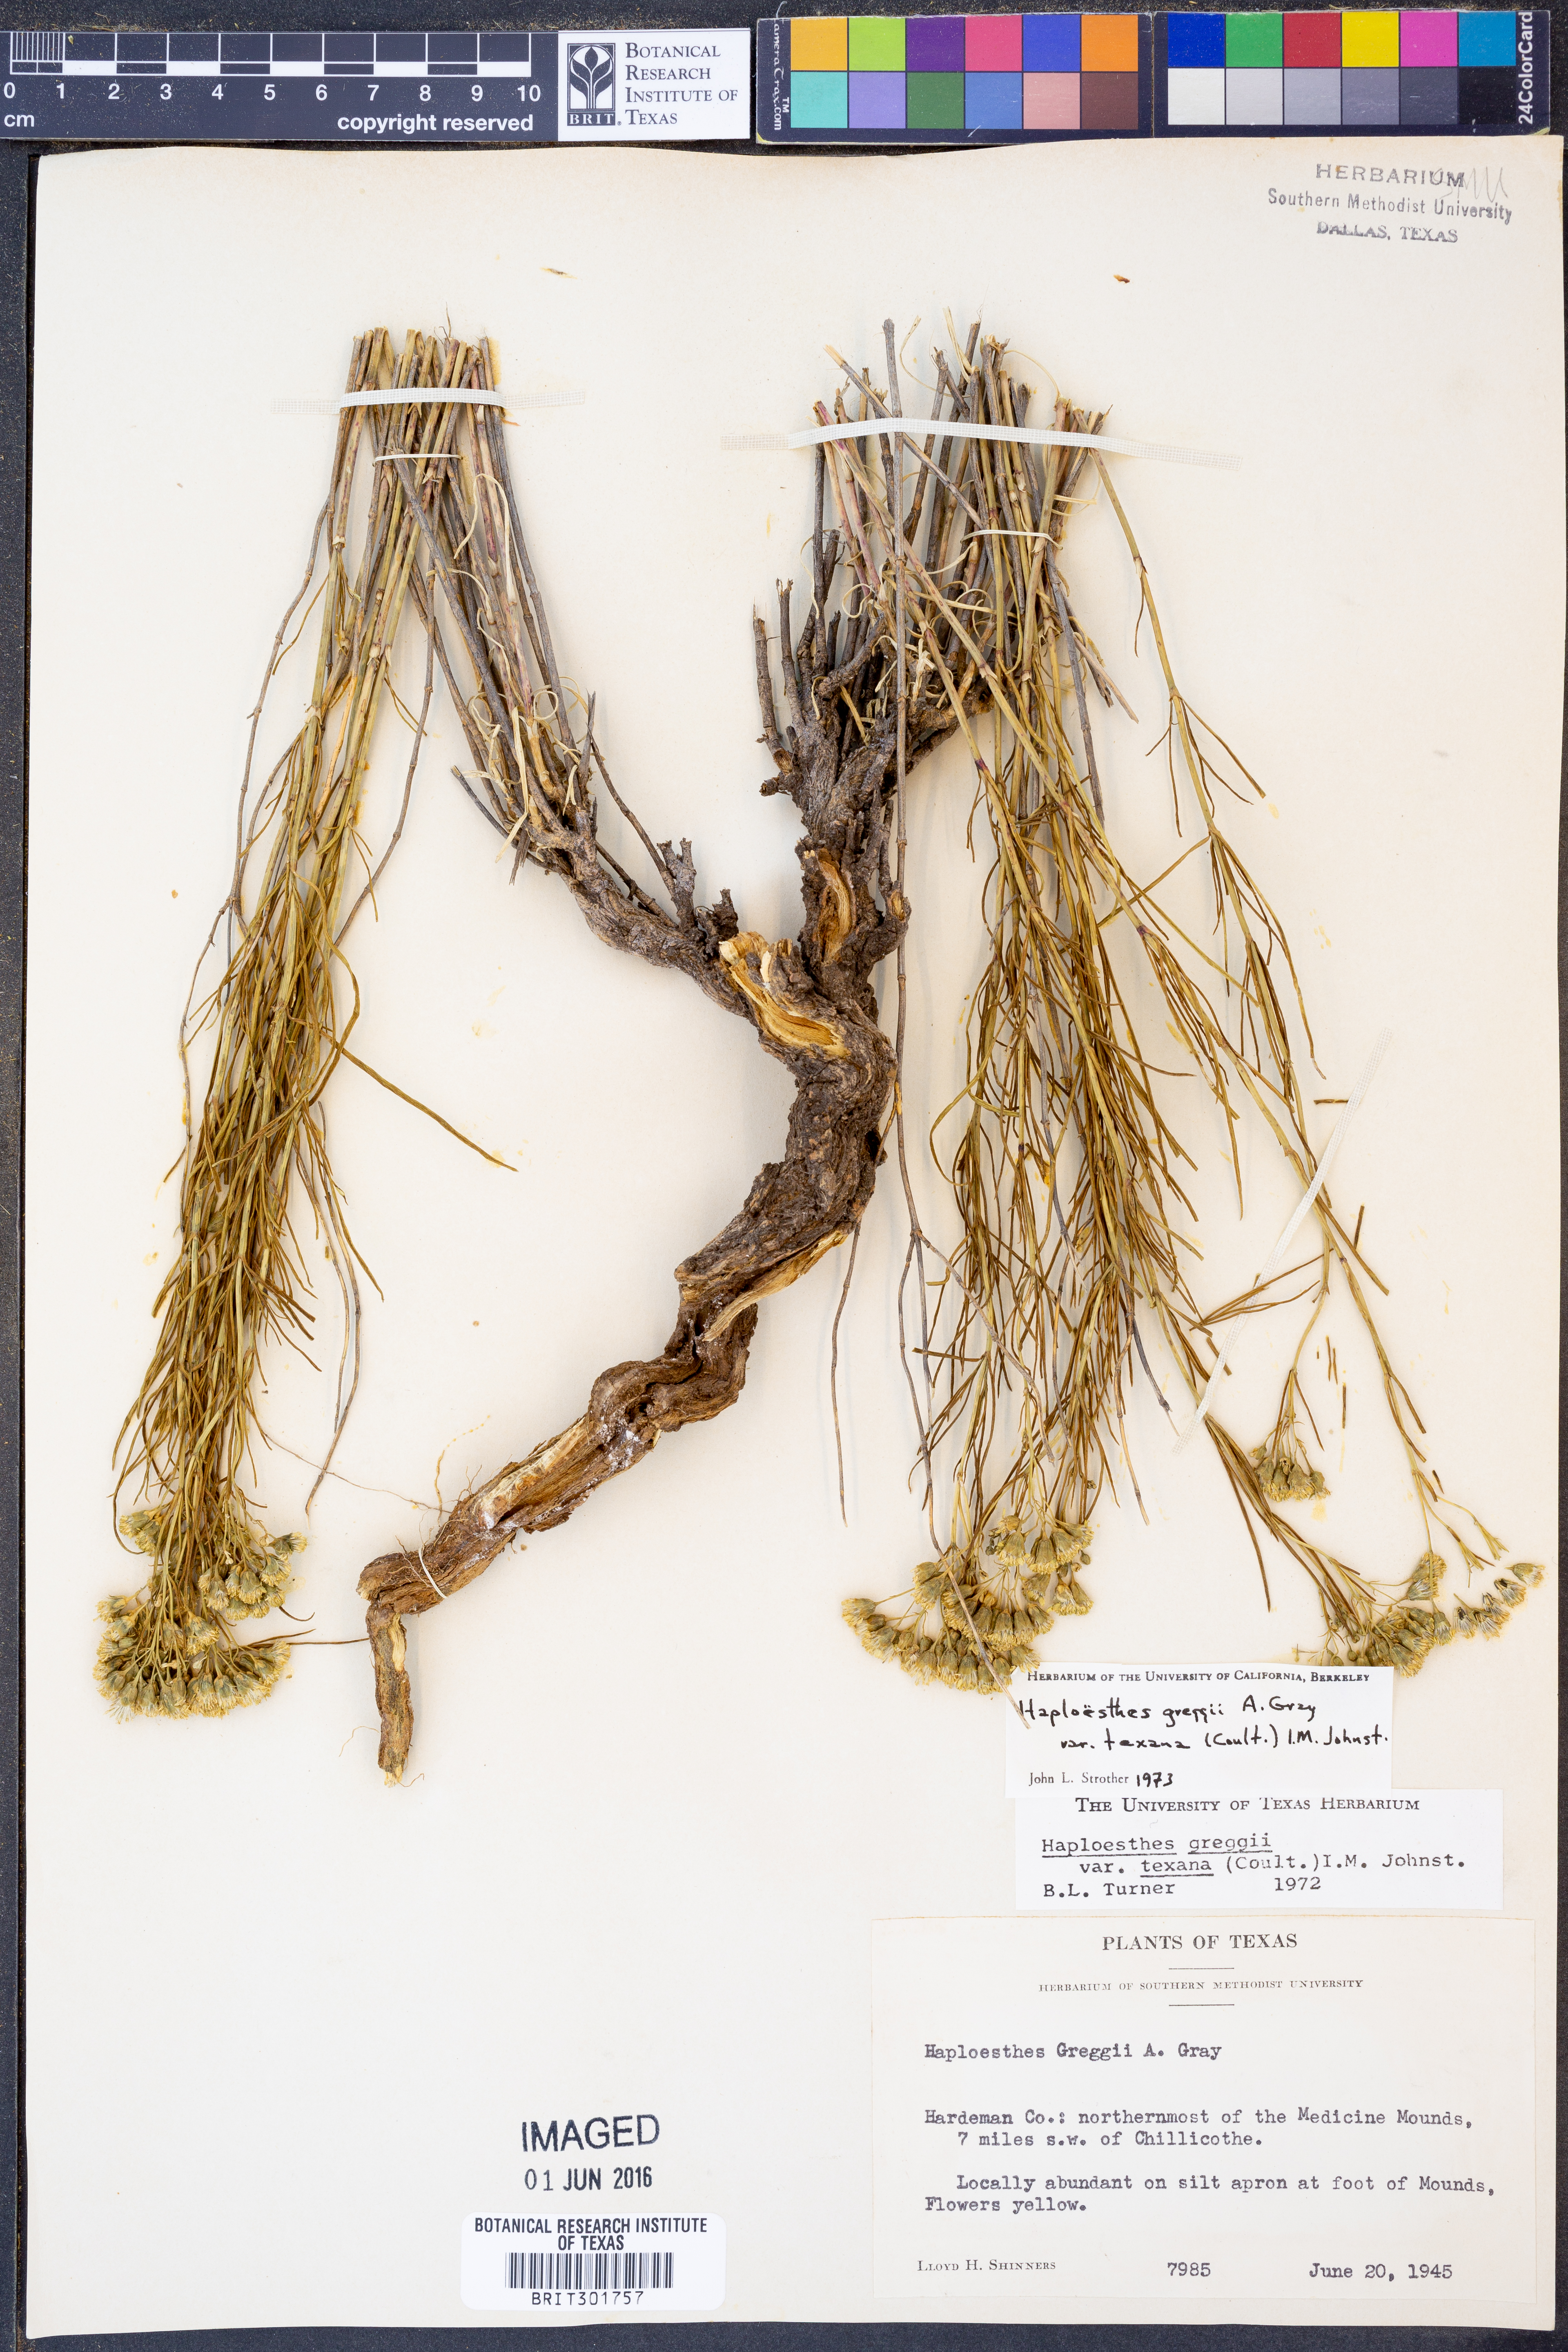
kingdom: Plantae
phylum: Tracheophyta
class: Magnoliopsida
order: Asterales
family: Asteraceae
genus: Haploesthes
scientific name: Haploesthes greggii
